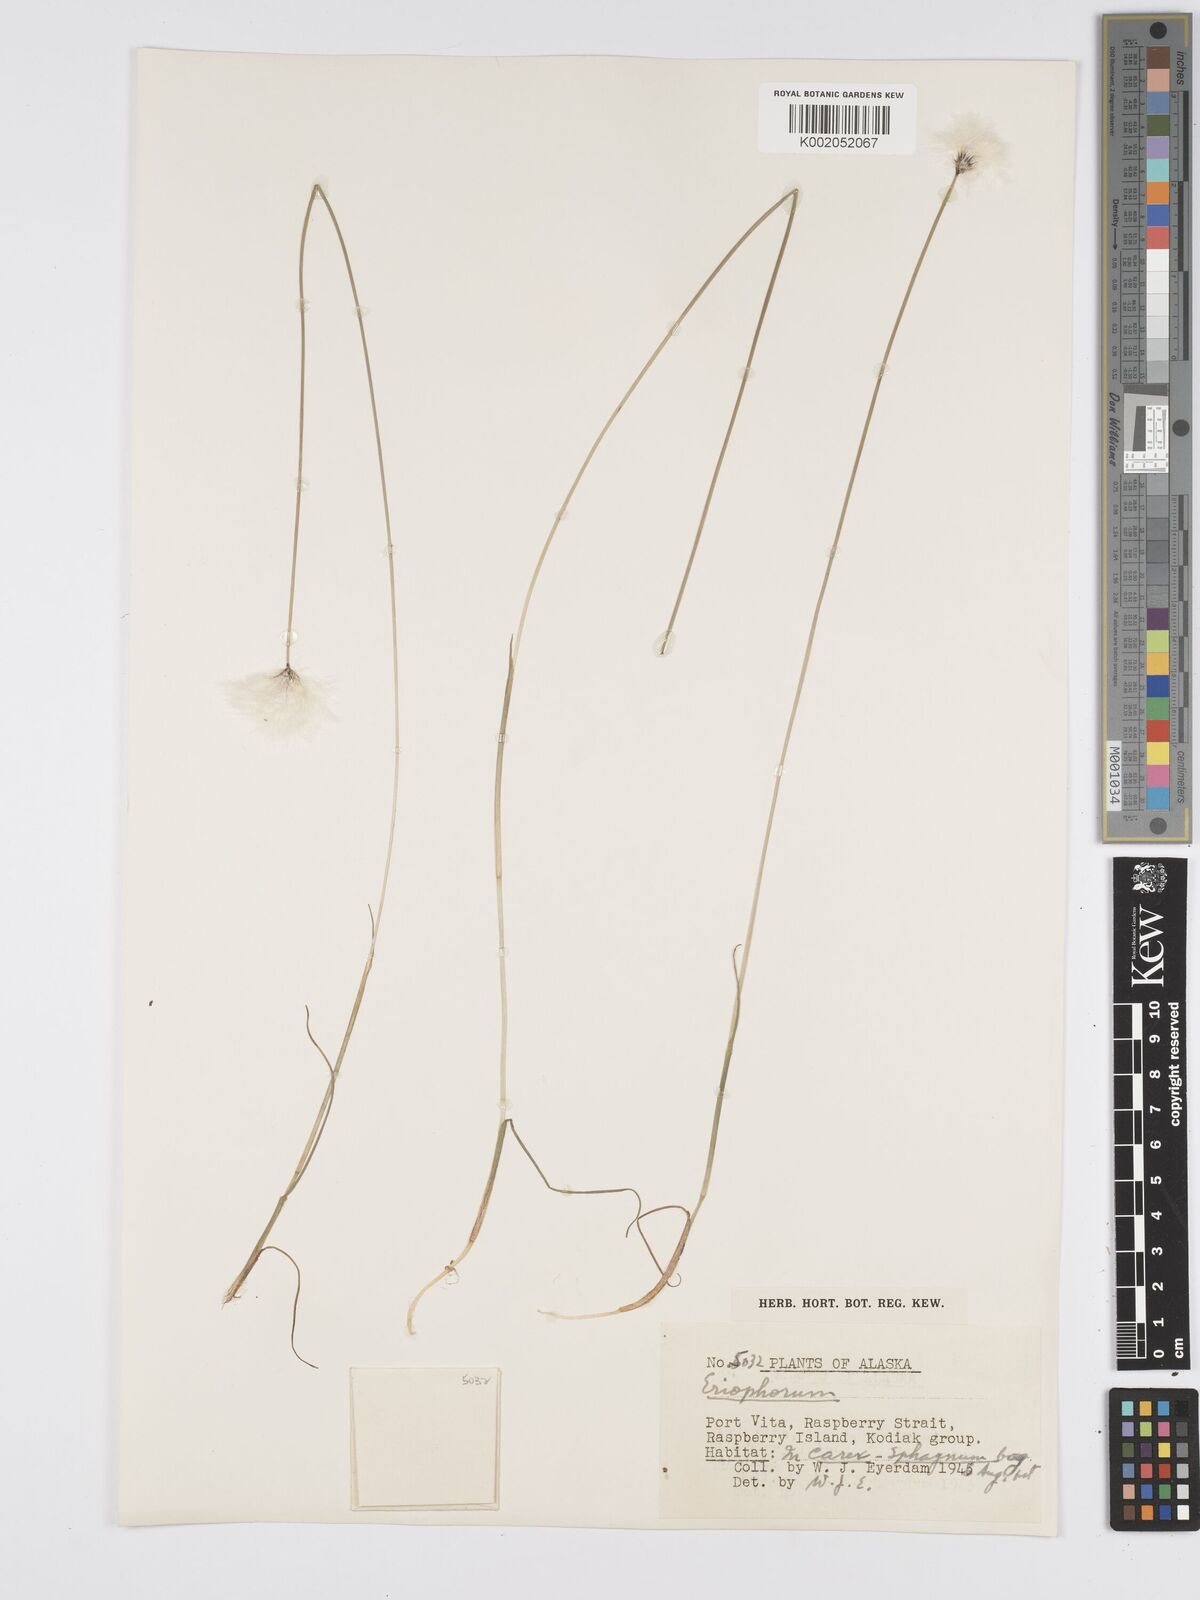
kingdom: Plantae
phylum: Tracheophyta
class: Liliopsida
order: Poales
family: Cyperaceae
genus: Eriophorum
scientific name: Eriophorum
